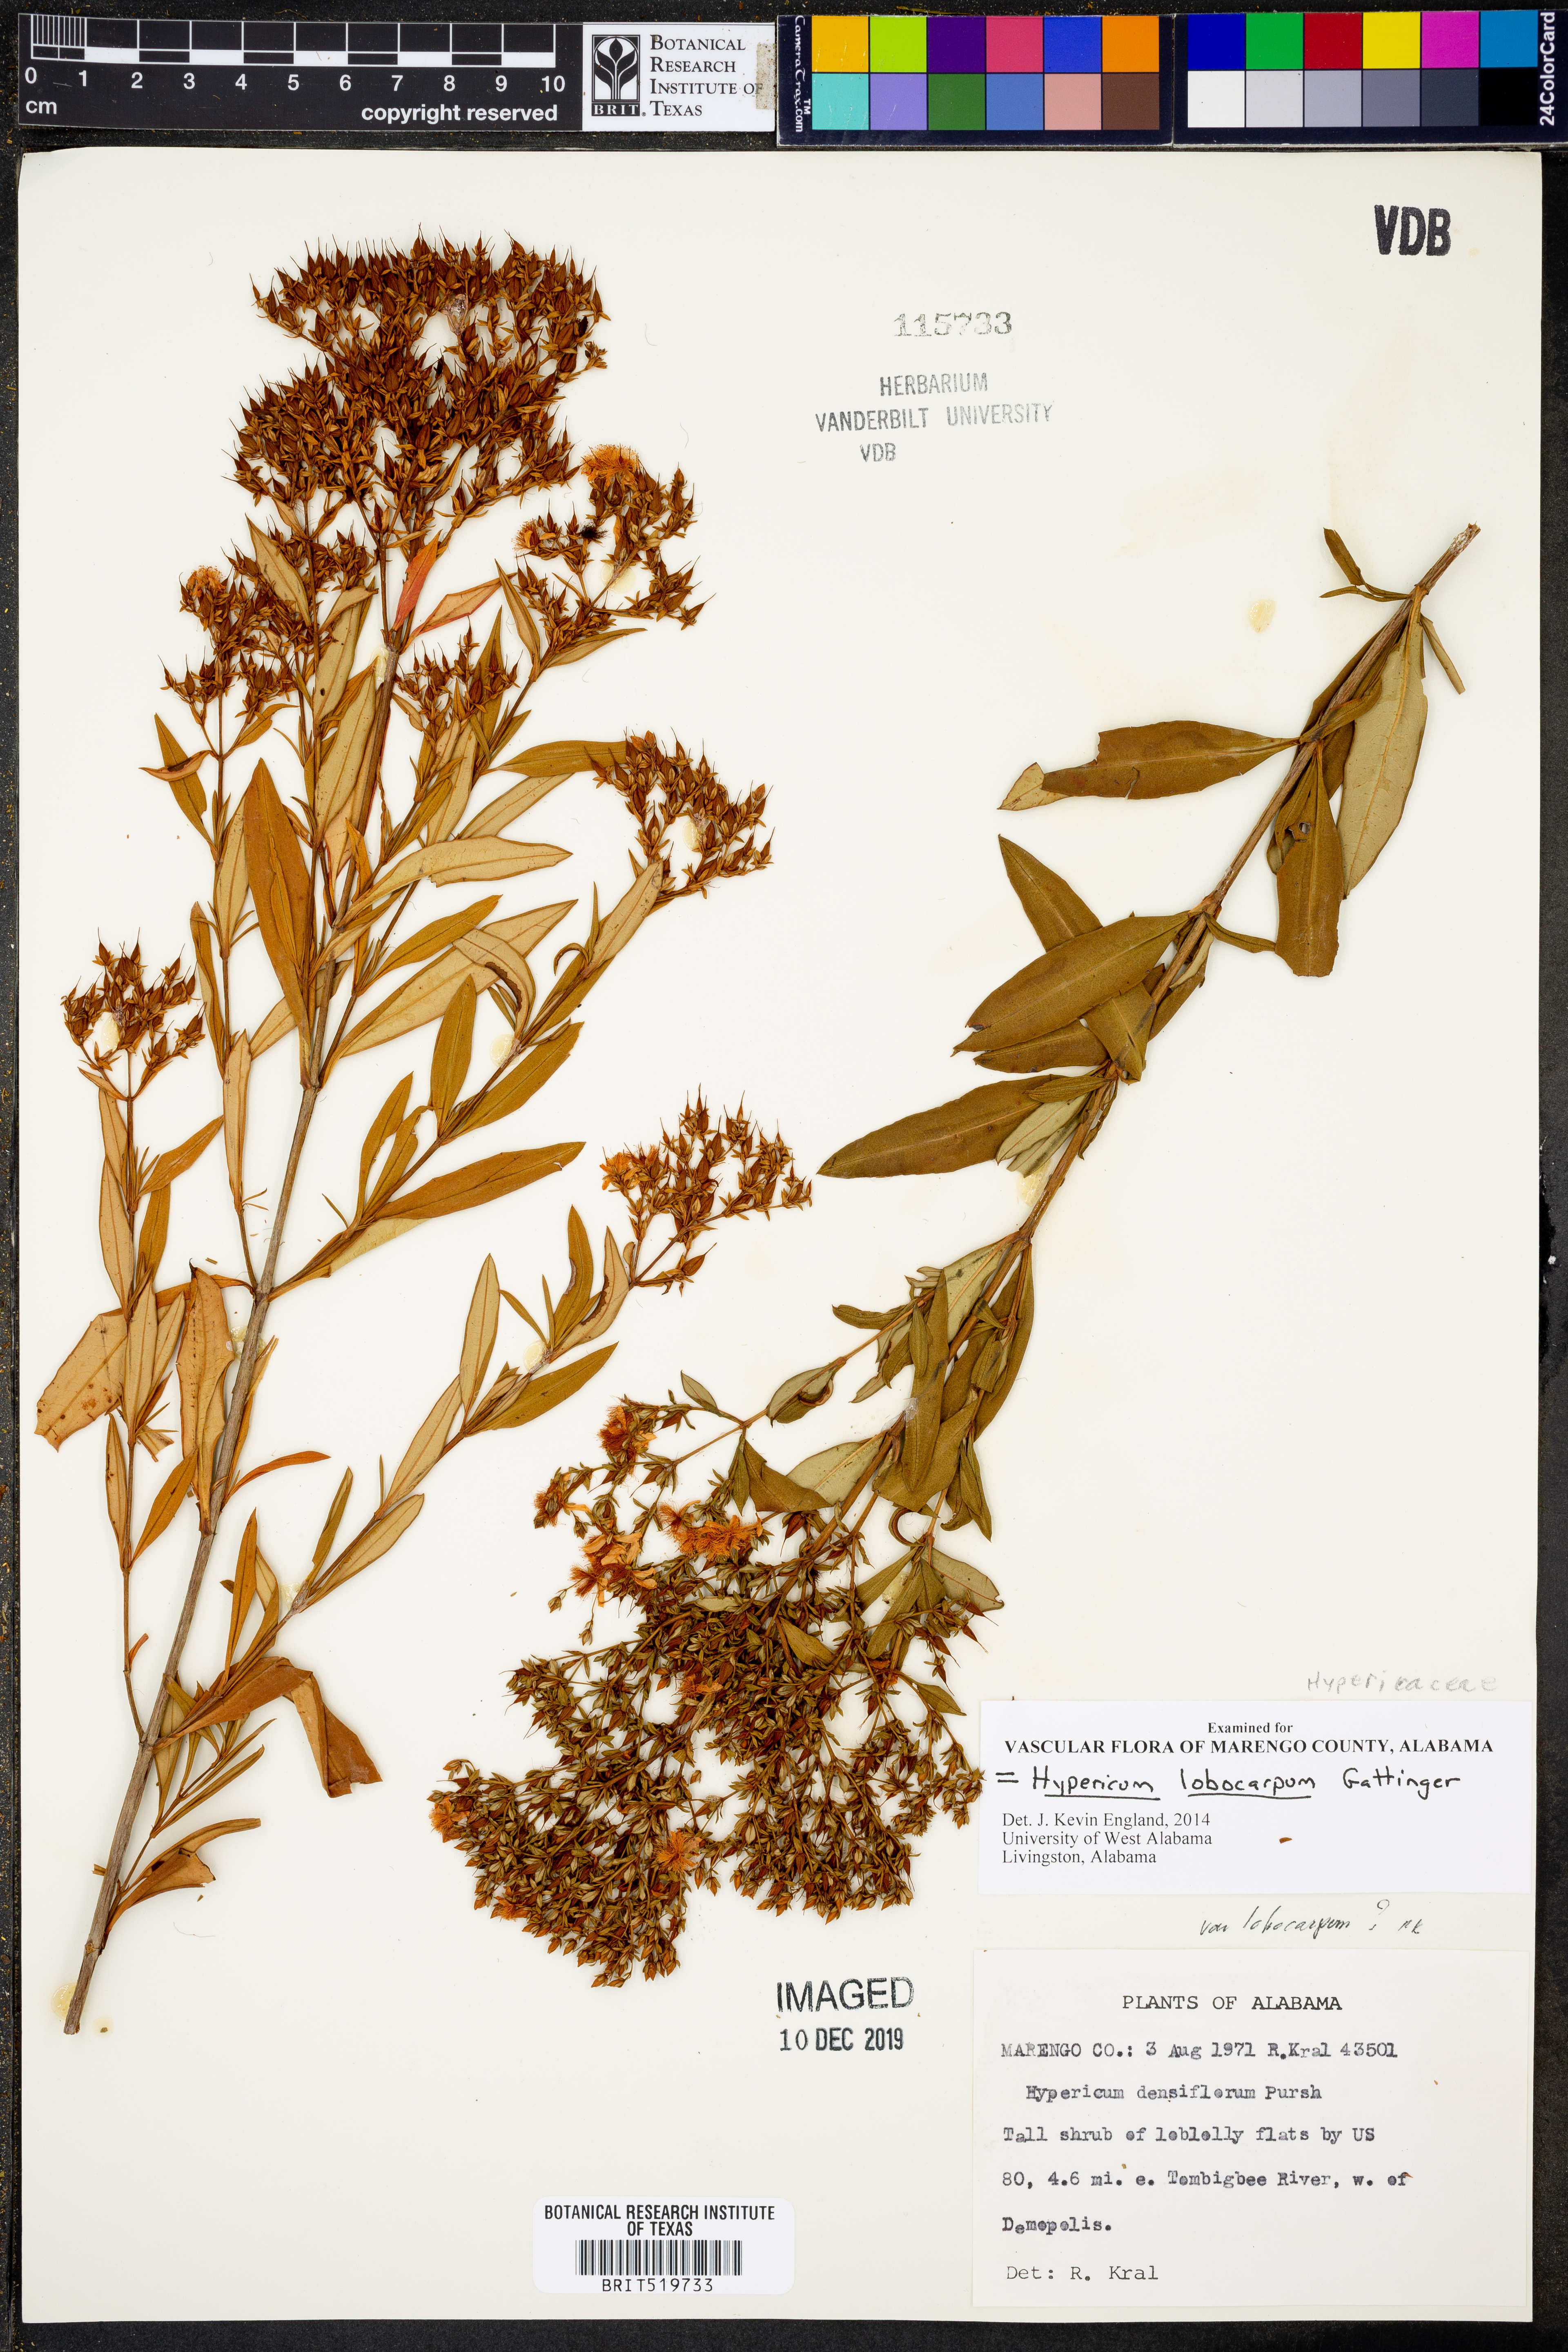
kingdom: Plantae
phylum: Tracheophyta
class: Magnoliopsida
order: Malpighiales
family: Hypericaceae
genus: Hypericum
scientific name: Hypericum lobocarpum
